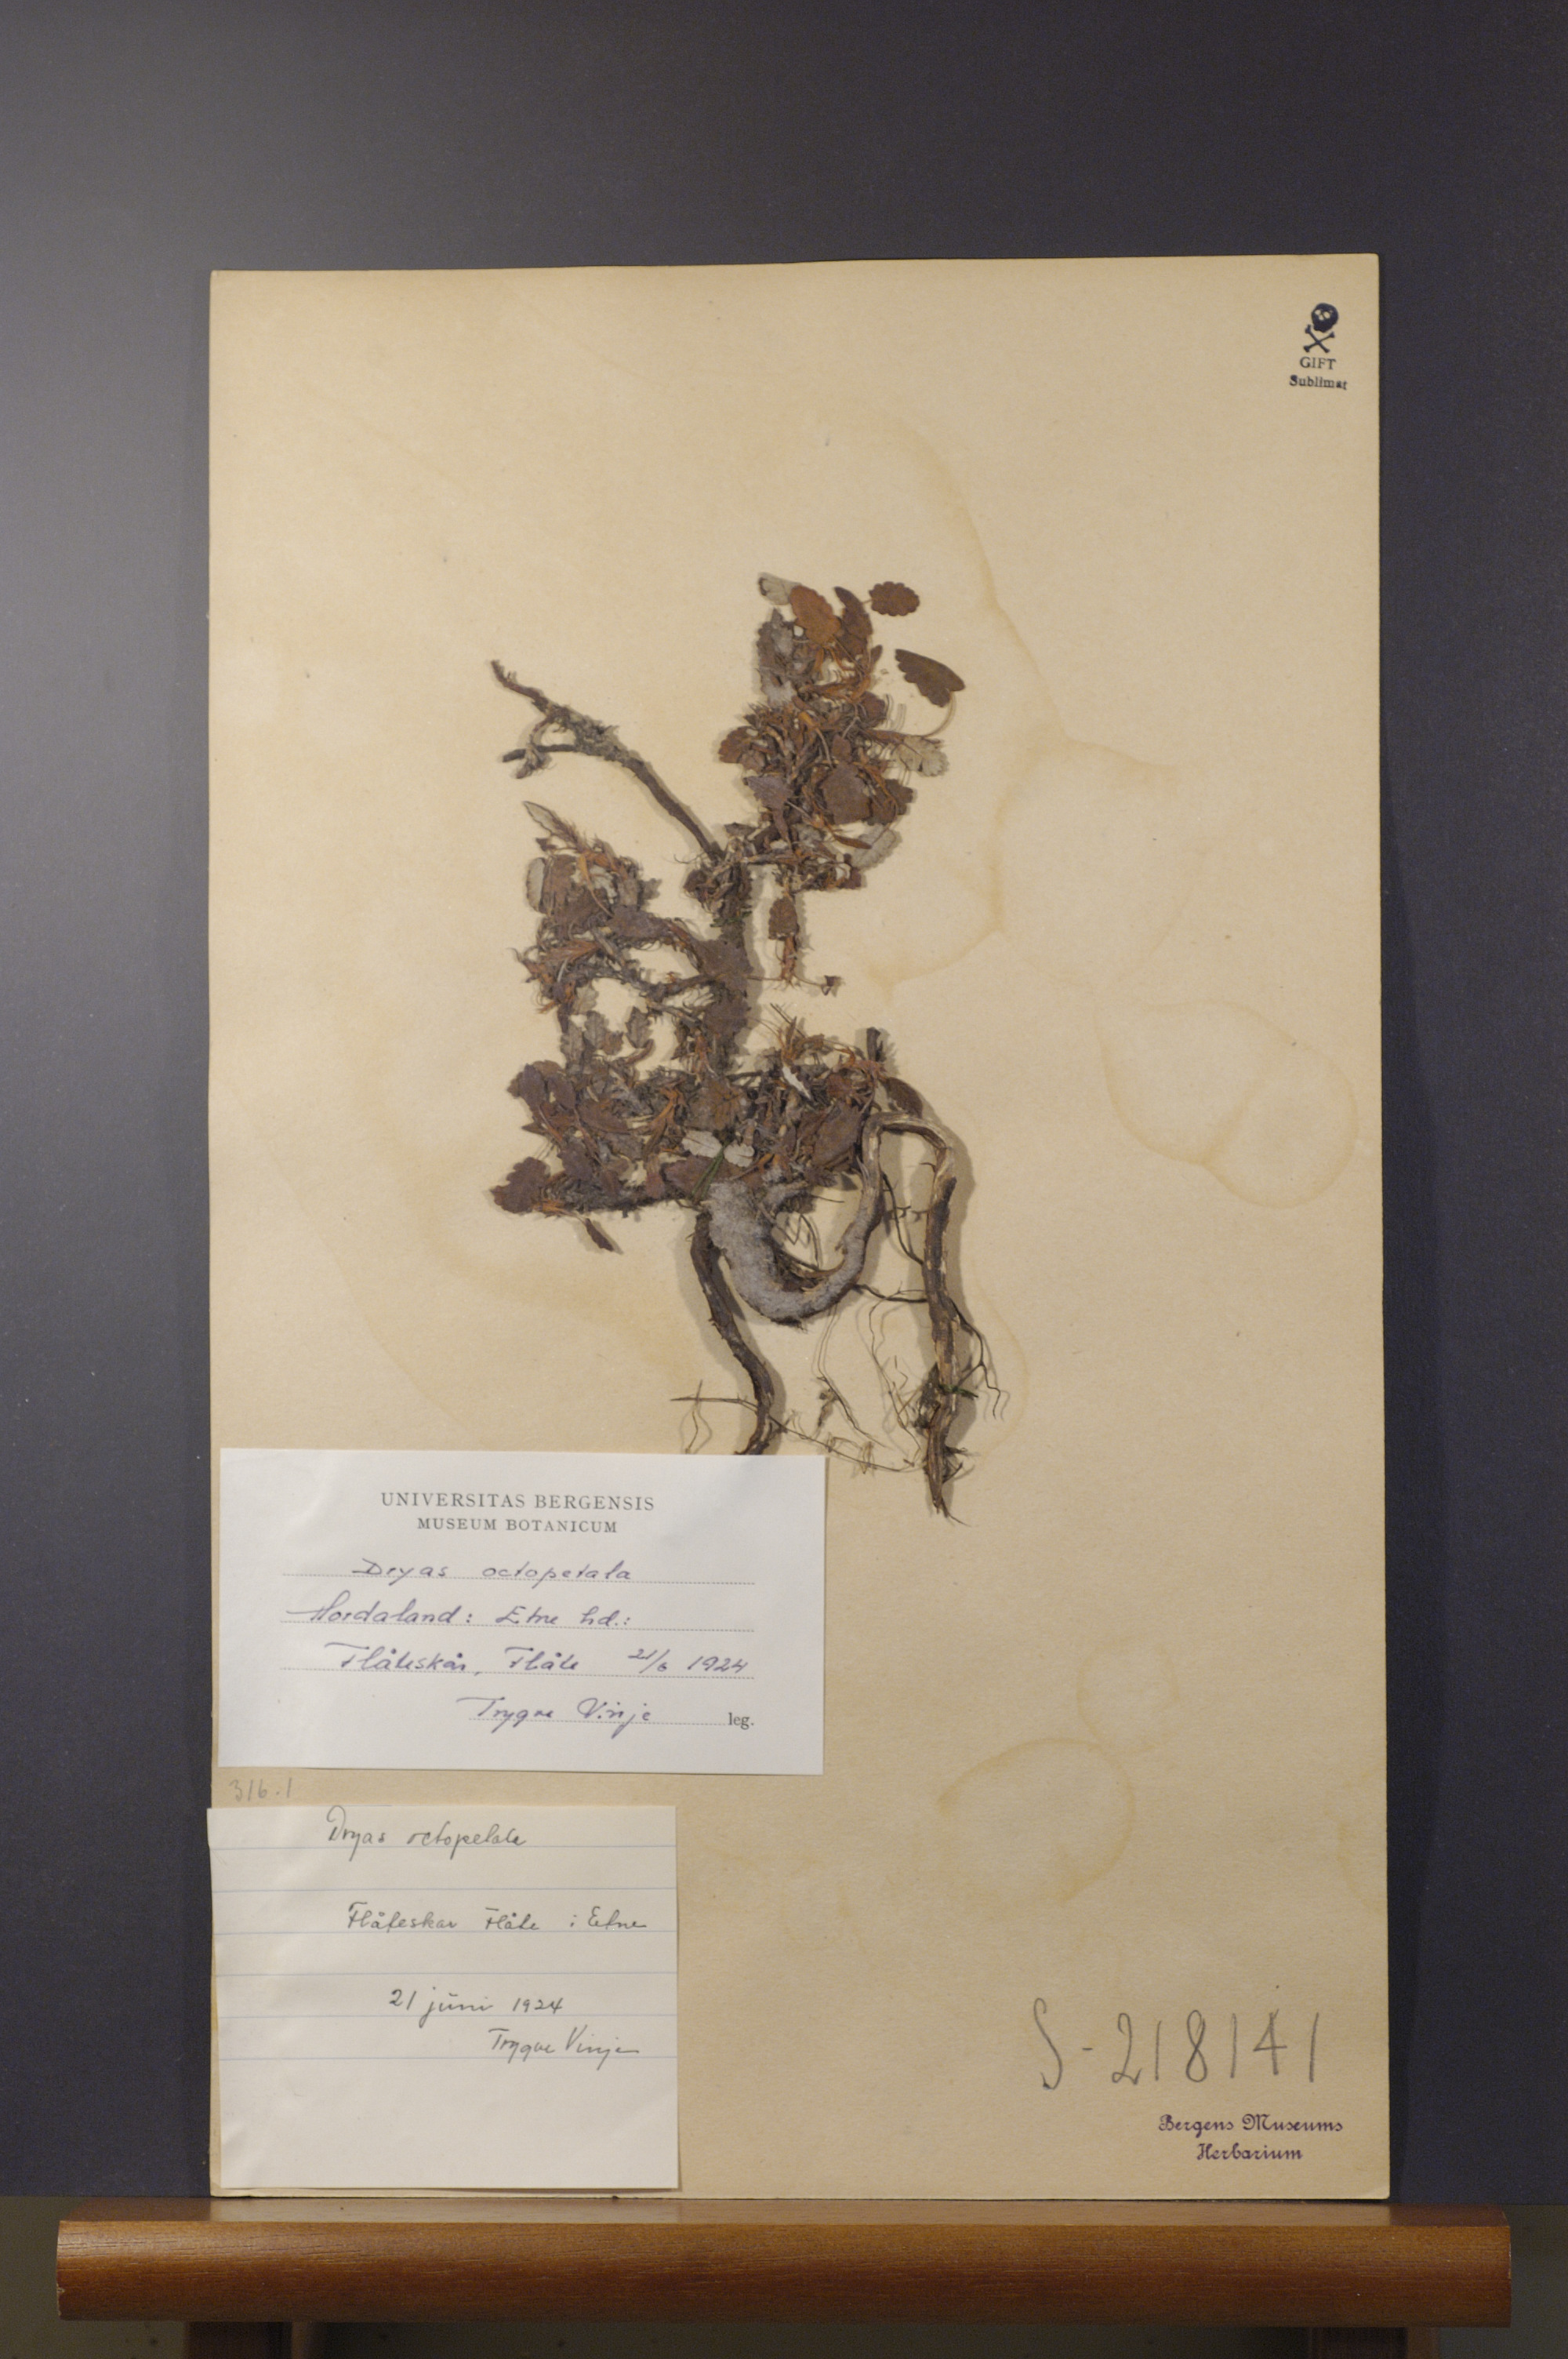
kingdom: Plantae
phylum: Tracheophyta
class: Magnoliopsida
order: Rosales
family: Rosaceae
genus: Dryas
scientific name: Dryas octopetala
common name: Eight-petal mountain-avens
